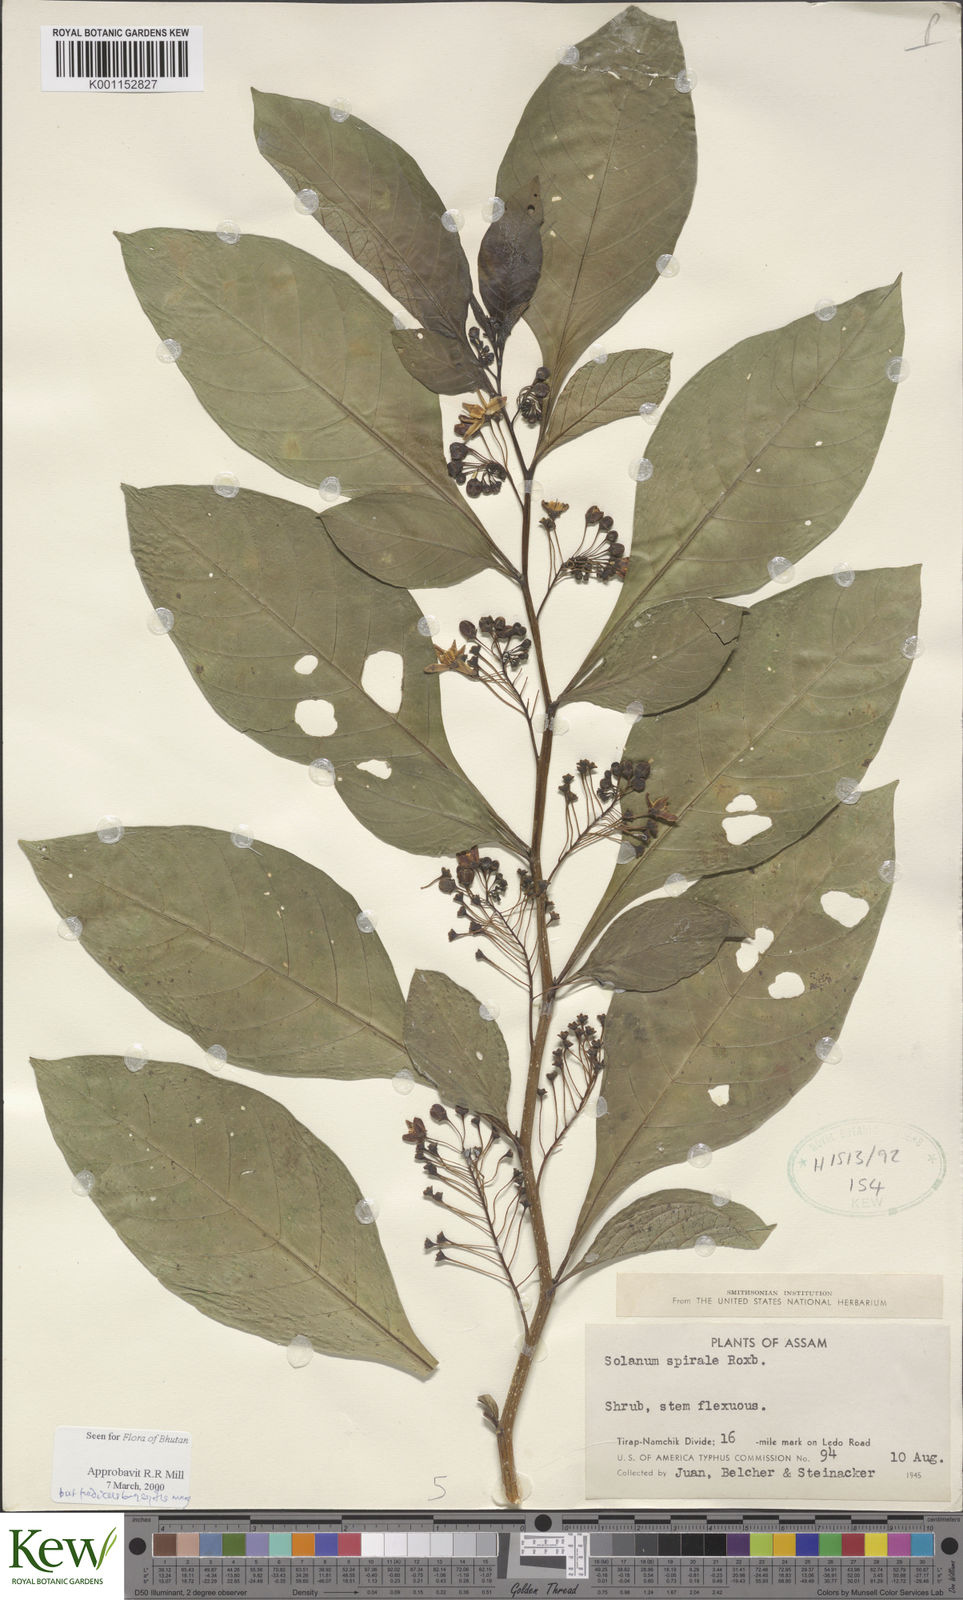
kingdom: Plantae
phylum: Tracheophyta
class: Magnoliopsida
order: Solanales
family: Solanaceae
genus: Solanum
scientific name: Solanum spirale
